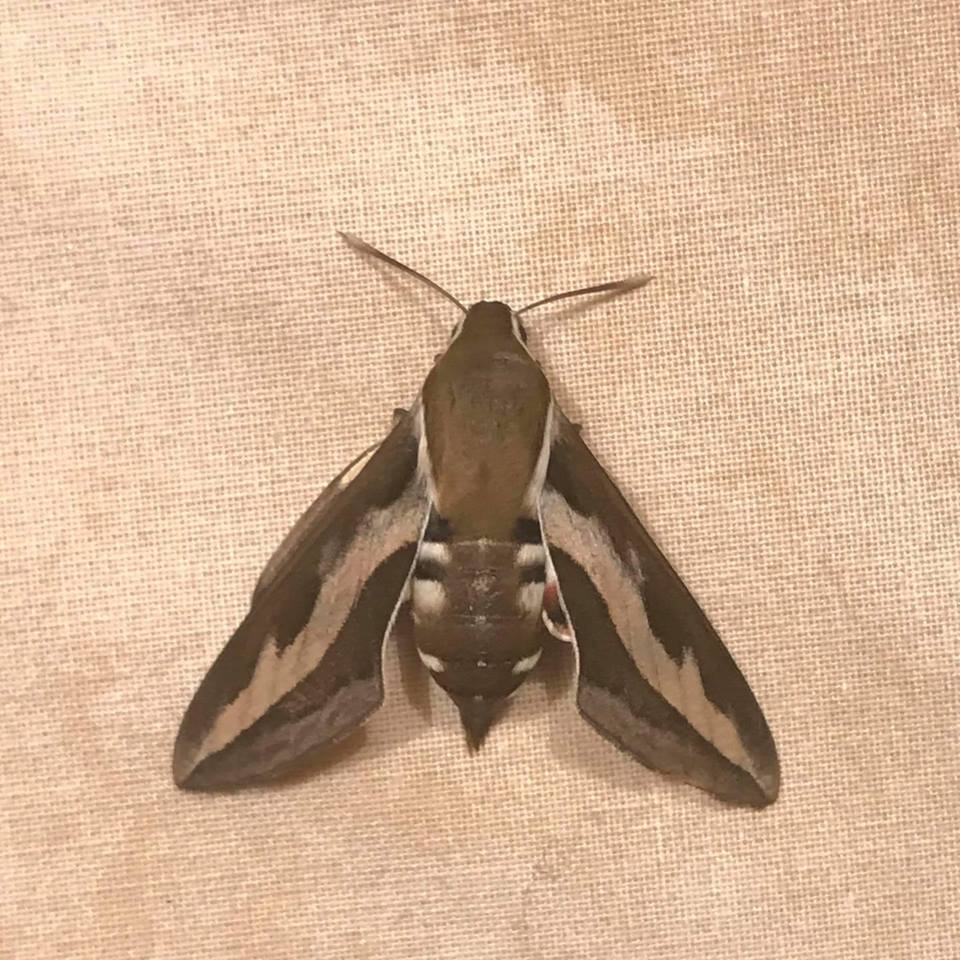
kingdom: Animalia
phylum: Arthropoda
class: Insecta
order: Lepidoptera
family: Sphingidae
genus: Hyles
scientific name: Hyles gallii
